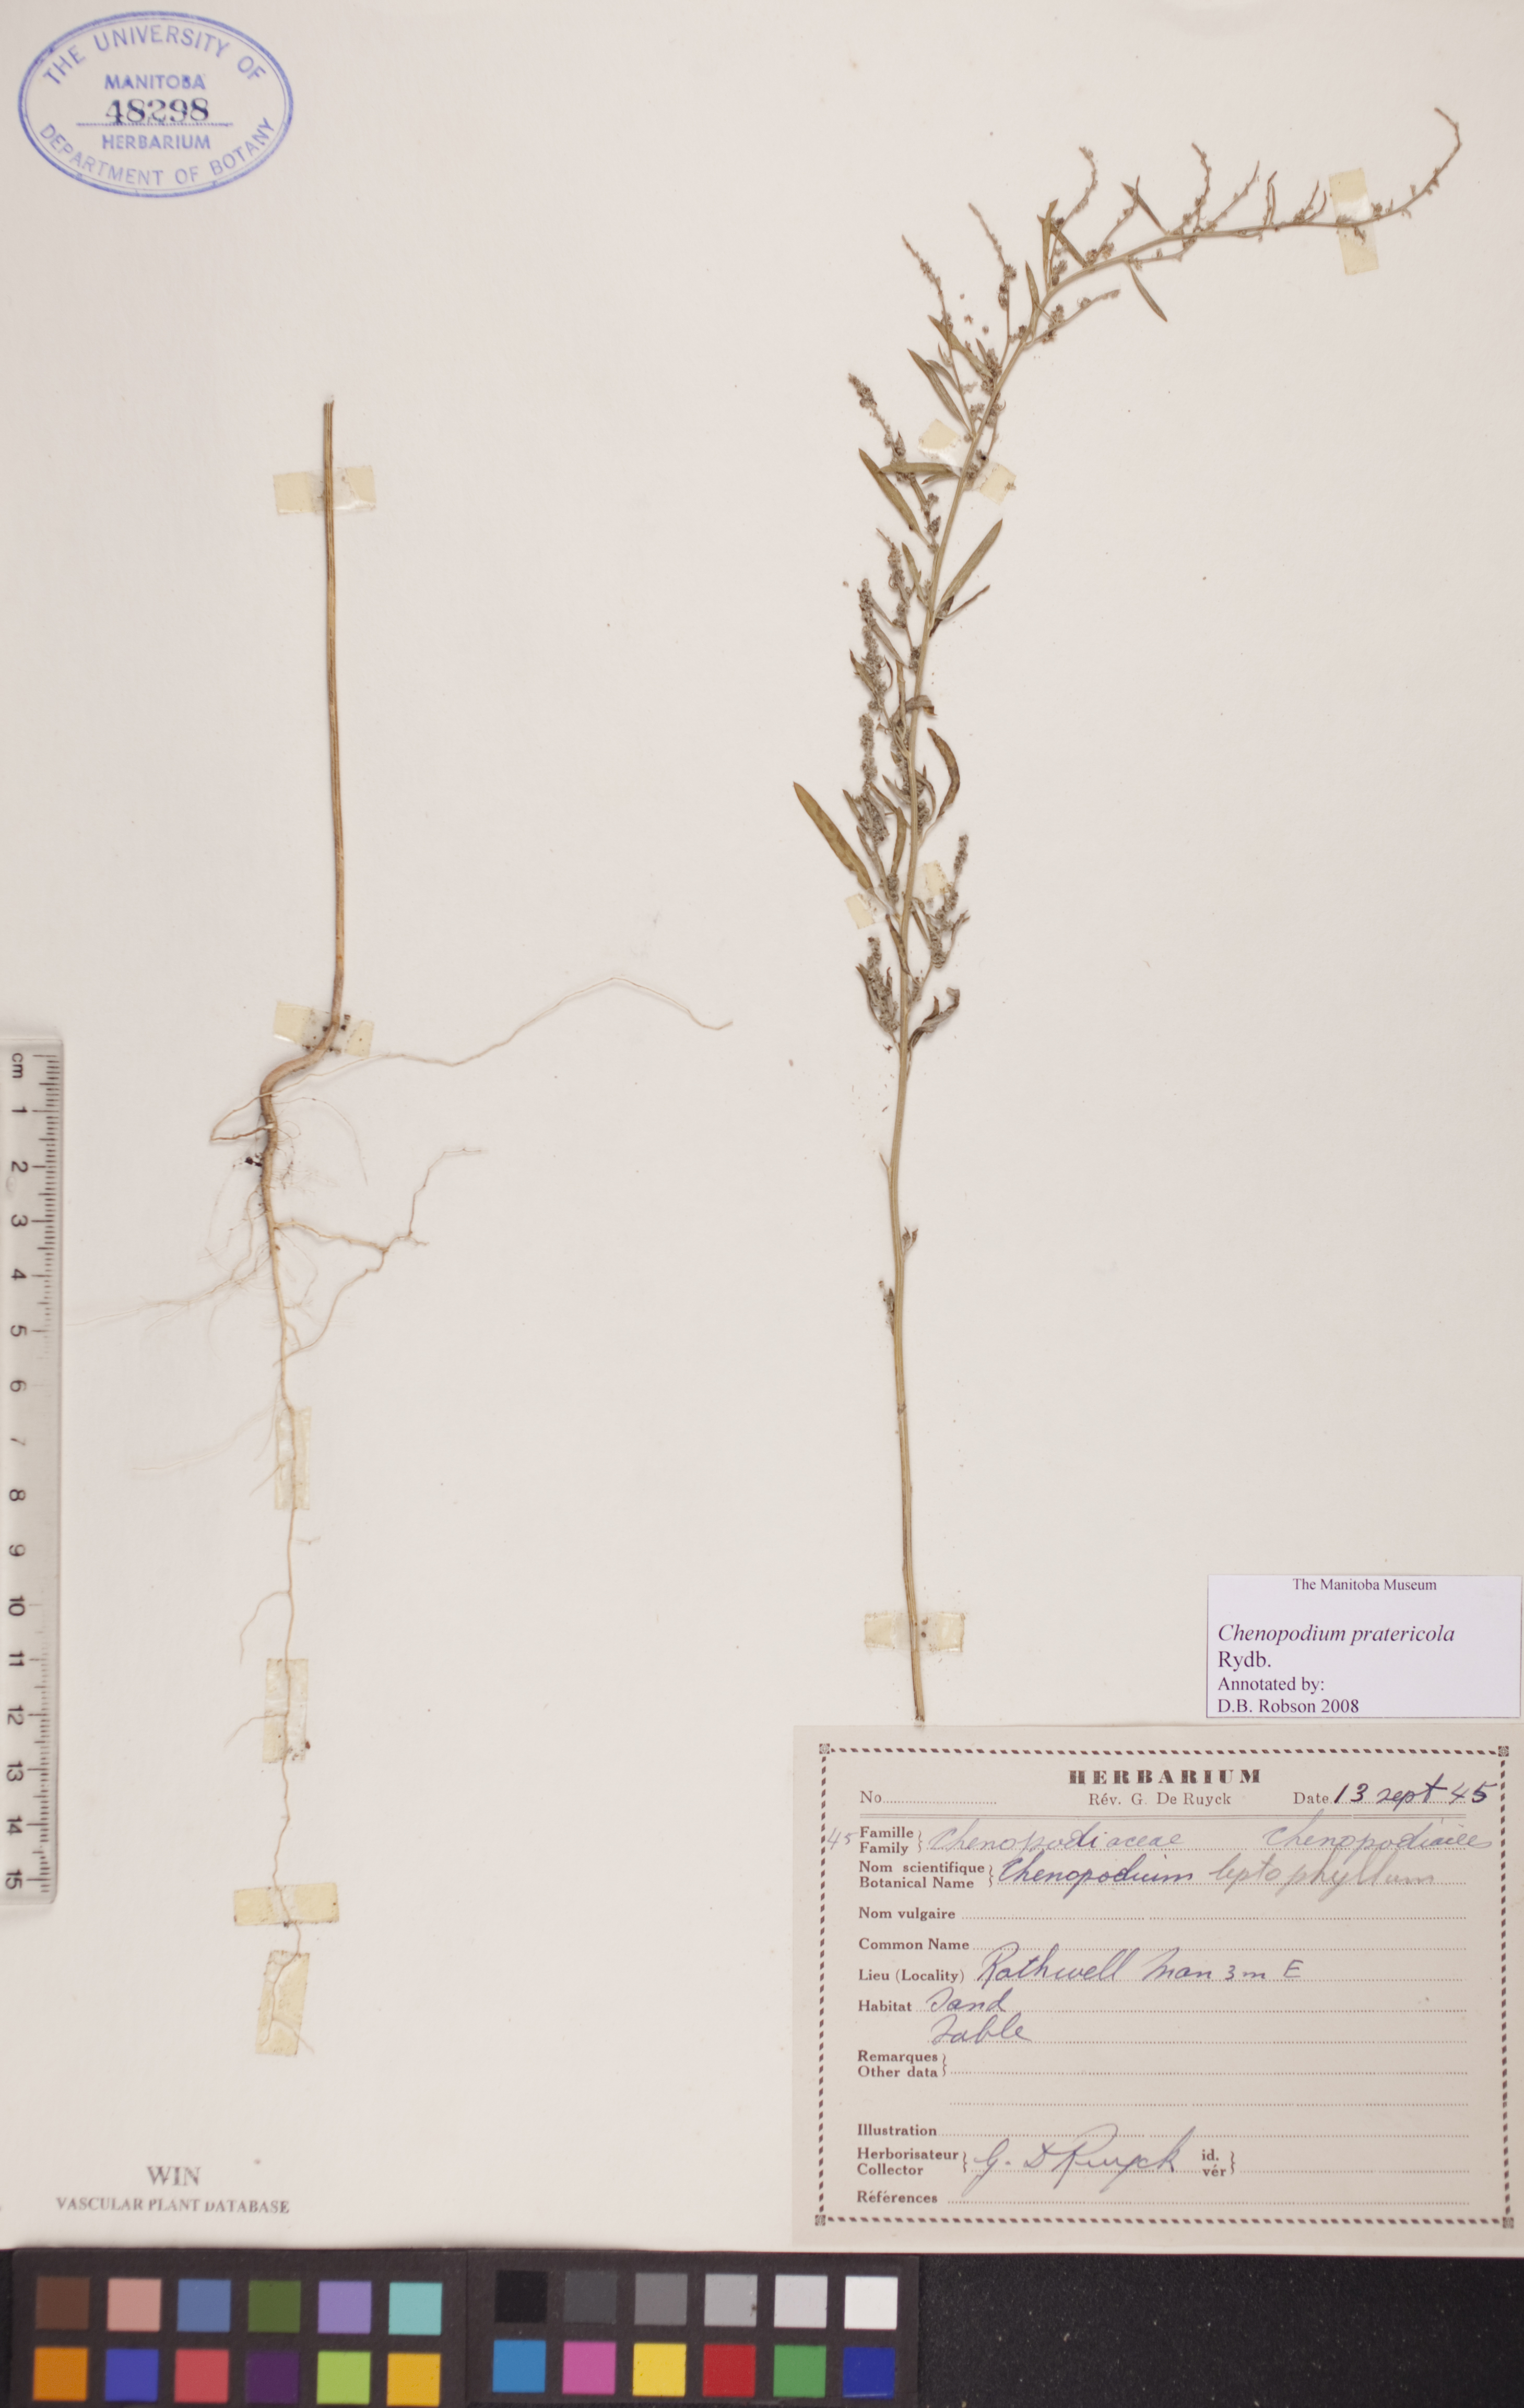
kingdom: Plantae
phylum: Tracheophyta
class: Magnoliopsida
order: Caryophyllales
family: Amaranthaceae
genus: Chenopodium
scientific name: Chenopodium pratericola
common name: Desert goosefoot
